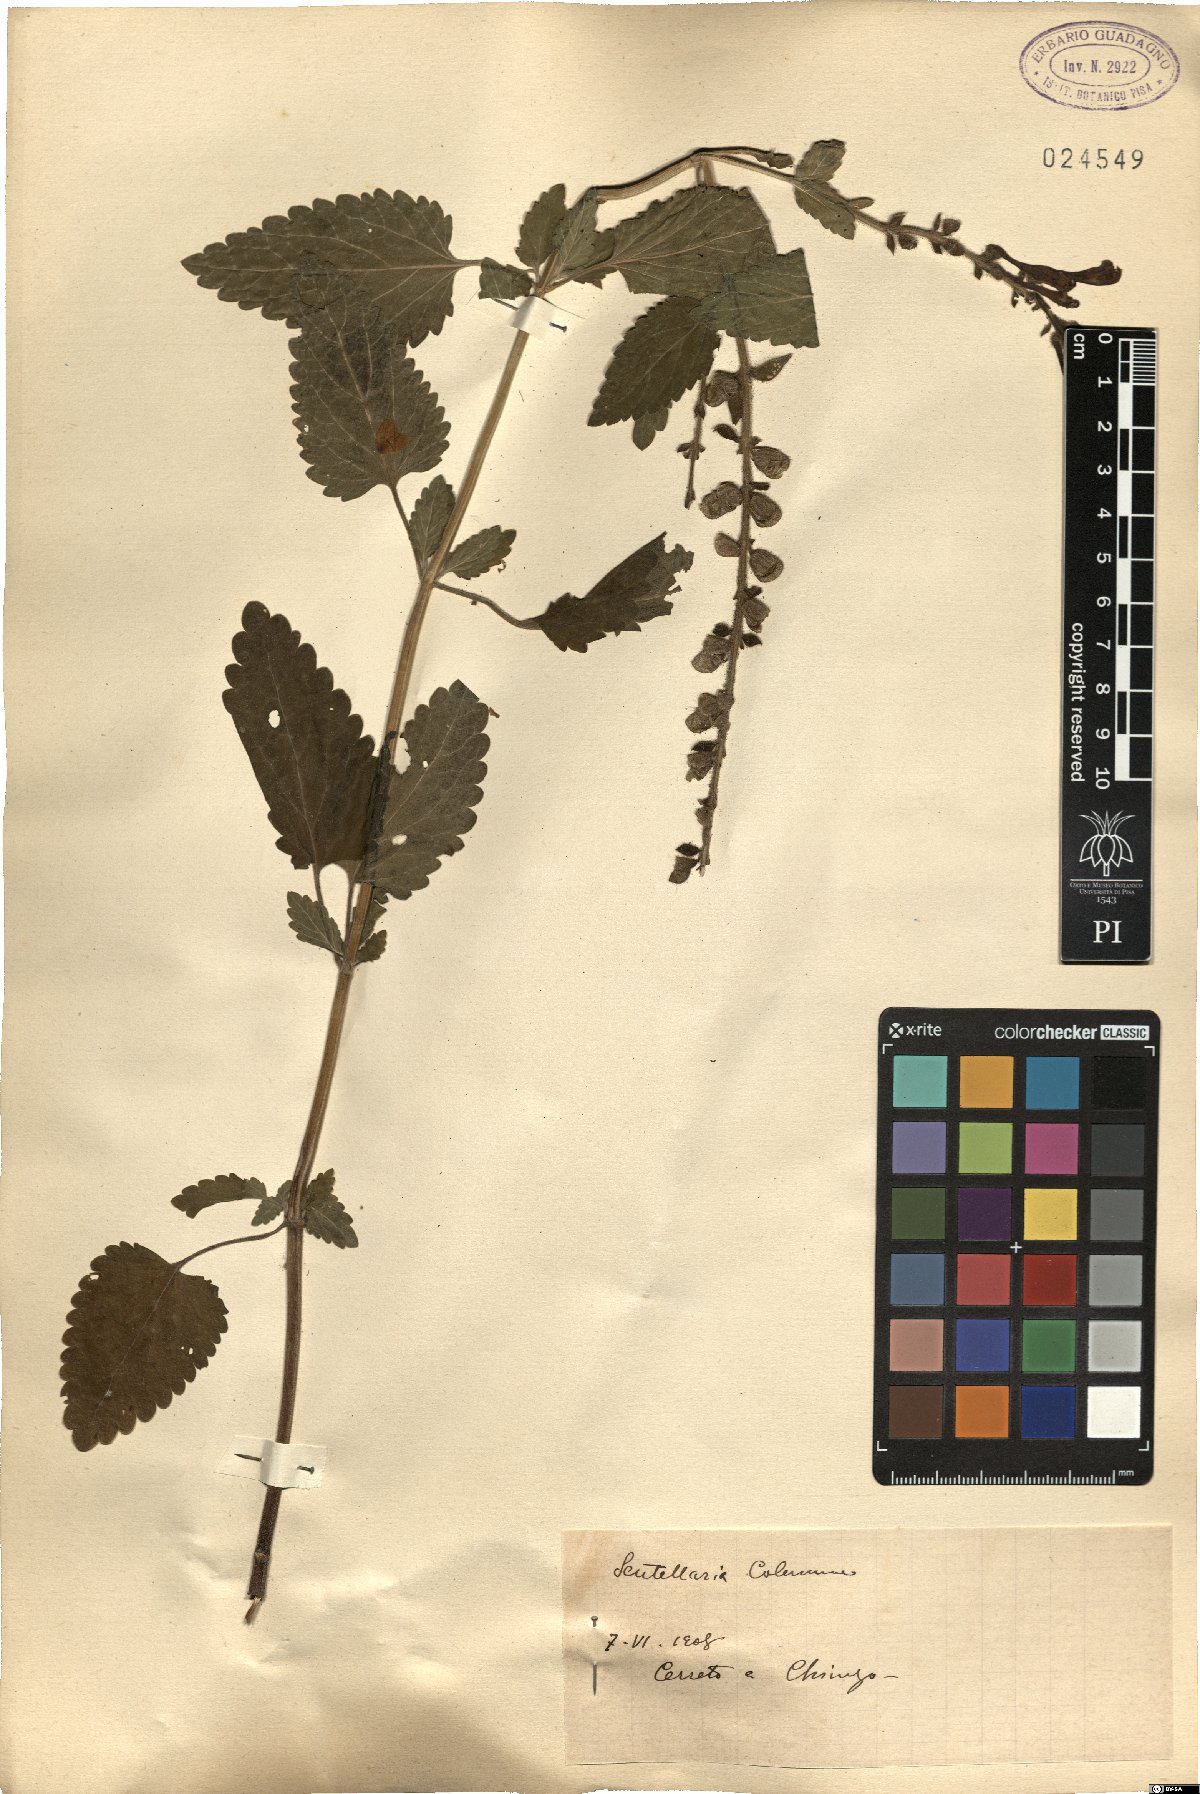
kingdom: Plantae
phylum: Tracheophyta
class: Magnoliopsida
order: Lamiales
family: Lamiaceae
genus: Scutellaria
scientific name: Scutellaria columnae
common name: Large skullcap
